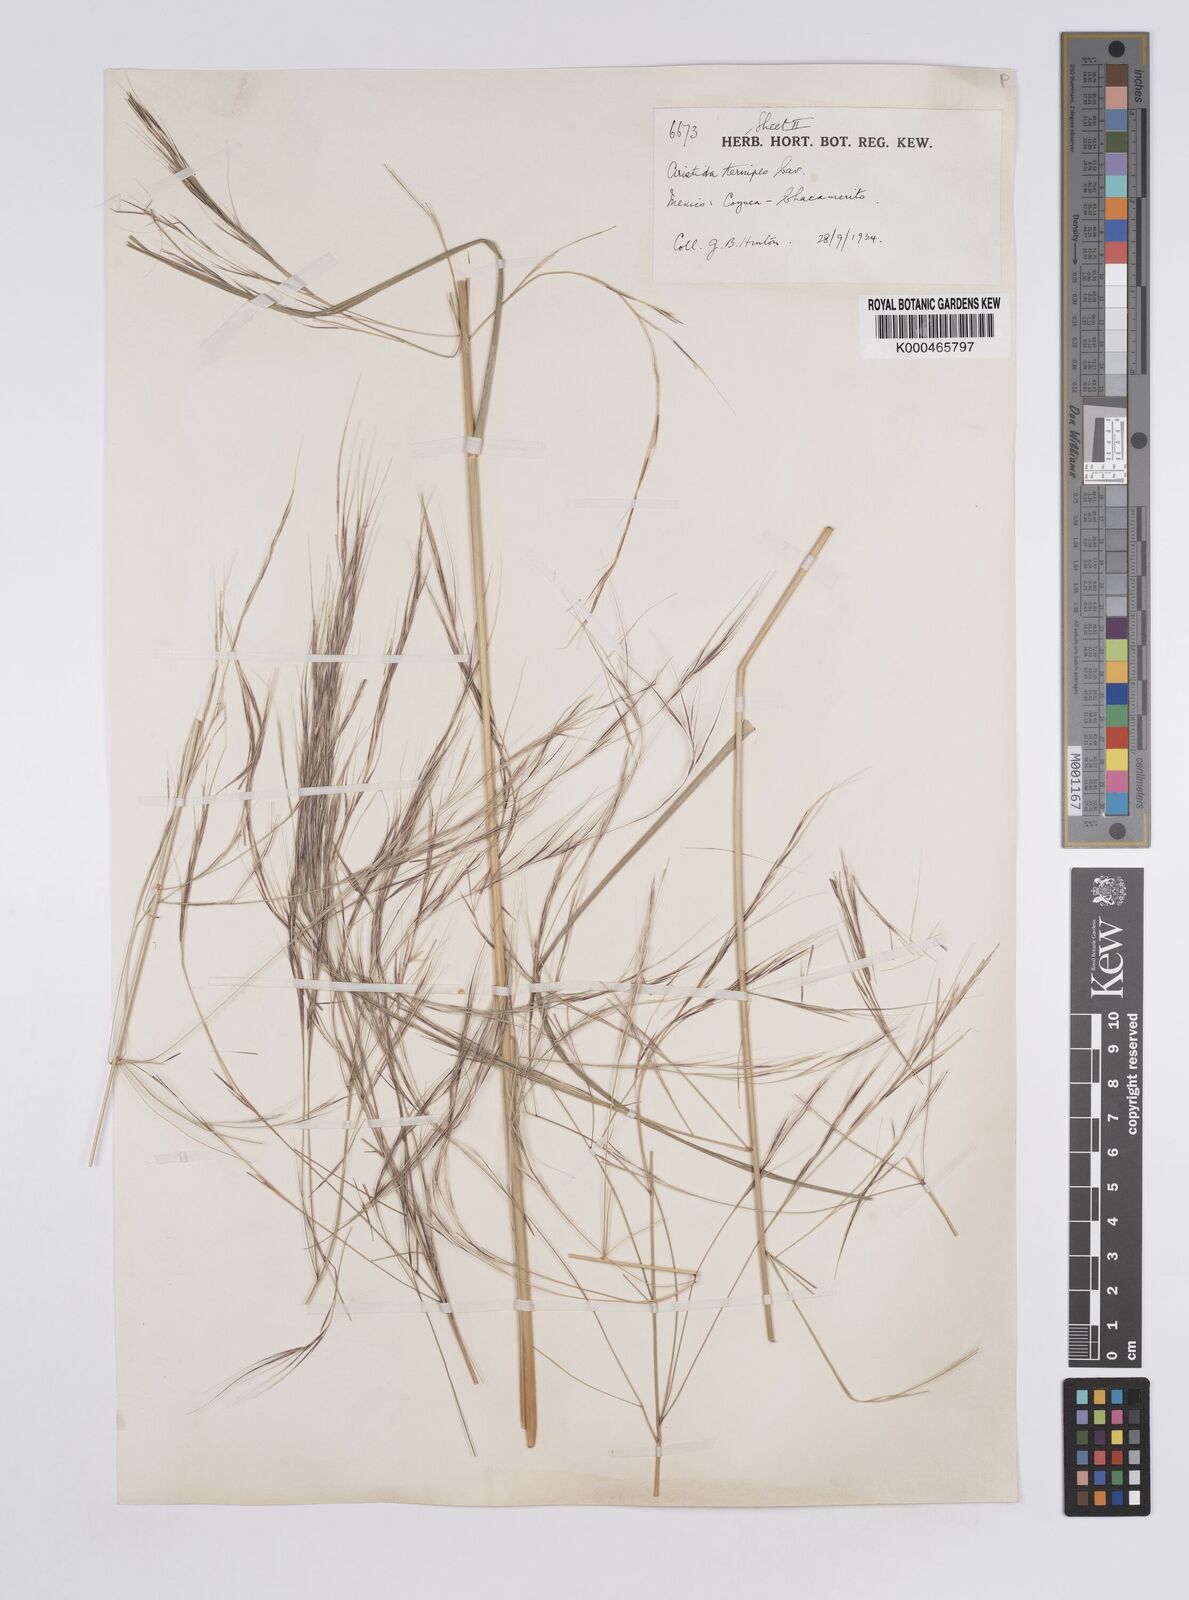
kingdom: Plantae
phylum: Tracheophyta
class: Liliopsida
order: Poales
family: Poaceae
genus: Aristida
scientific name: Aristida ternipes
